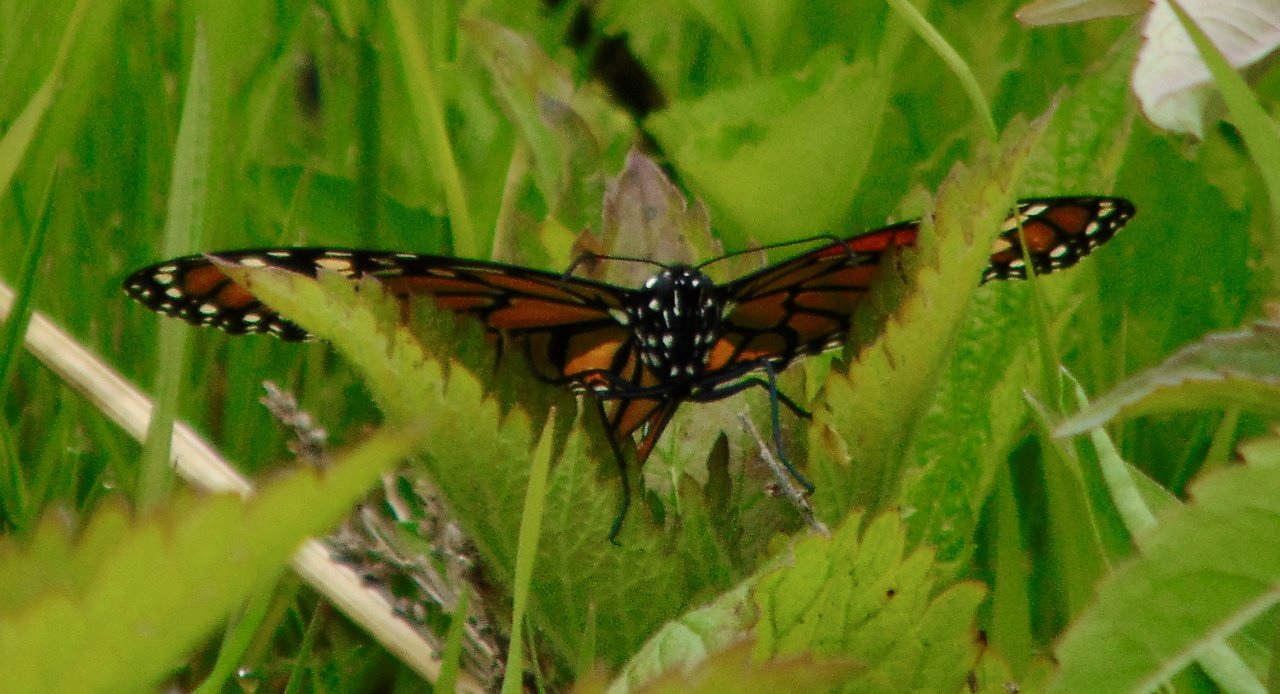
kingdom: Animalia
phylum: Arthropoda
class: Insecta
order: Lepidoptera
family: Nymphalidae
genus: Danaus
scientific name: Danaus plexippus
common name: Monarch
